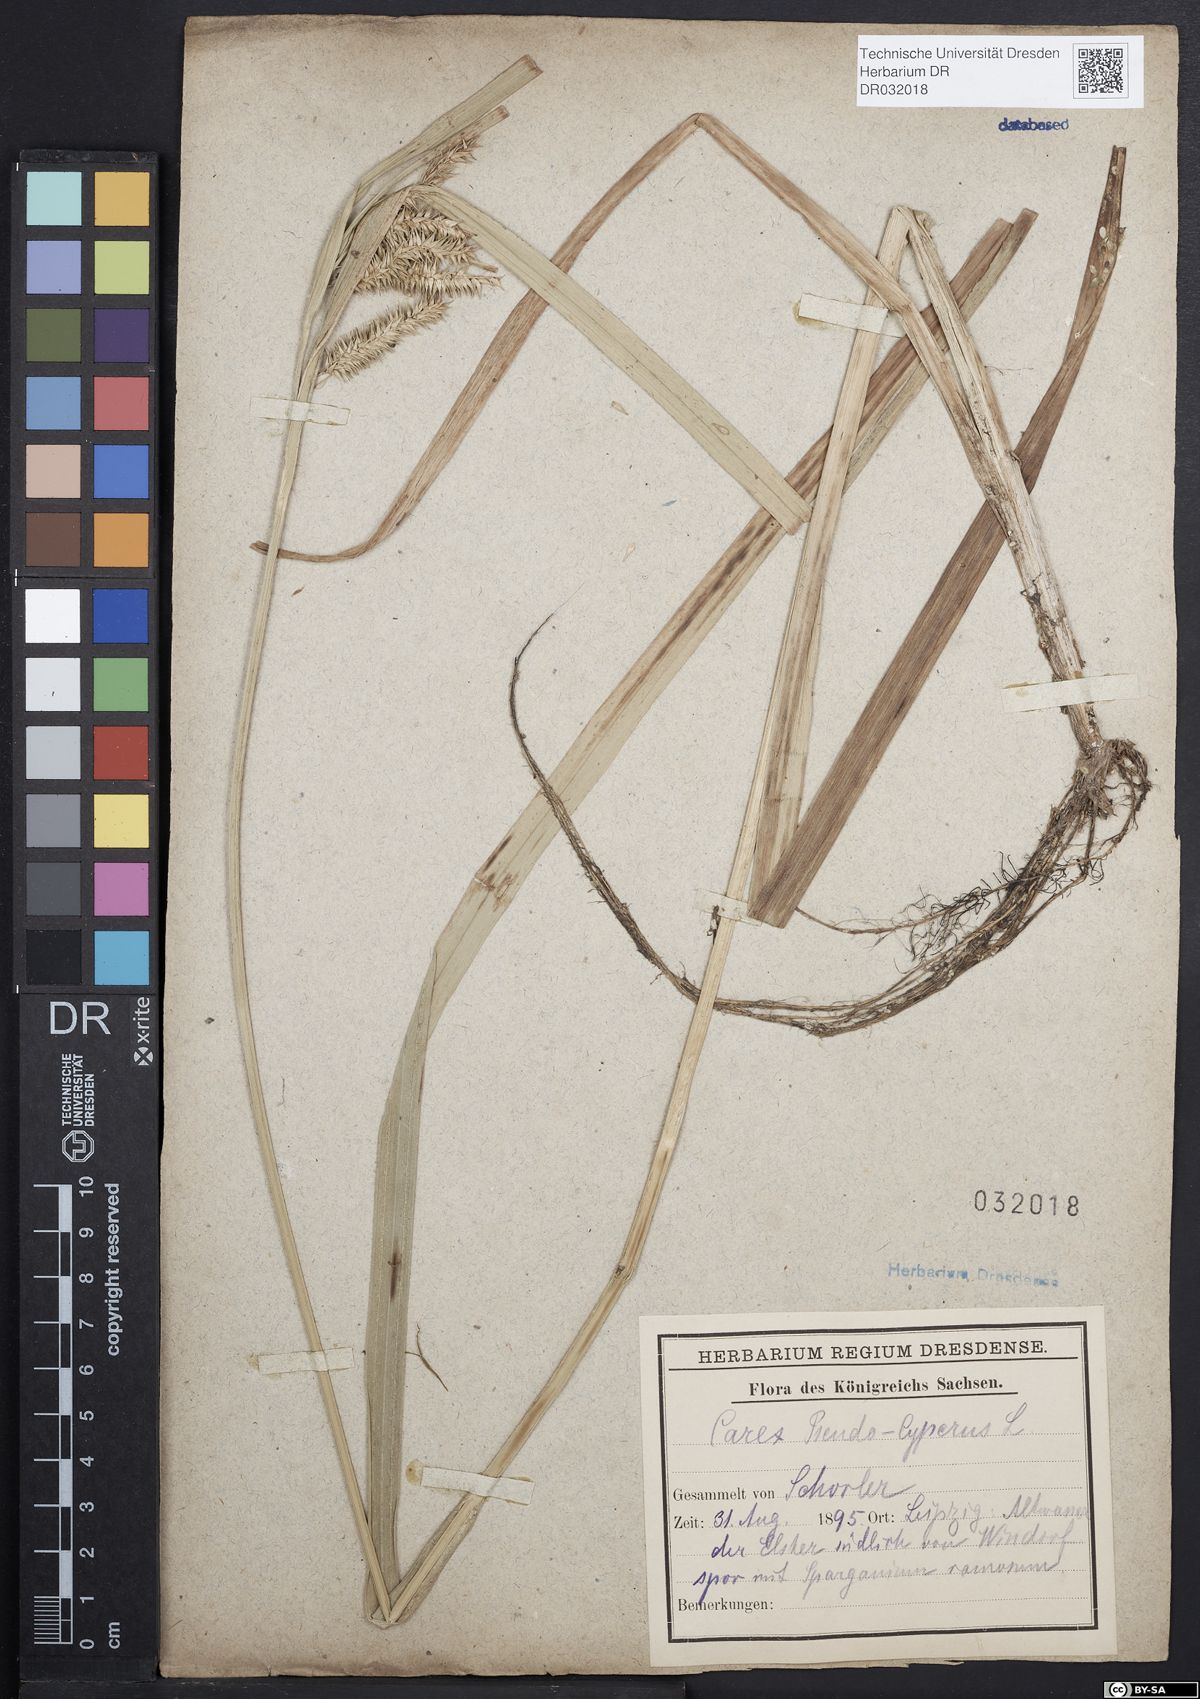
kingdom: Plantae
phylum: Tracheophyta
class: Liliopsida
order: Poales
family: Cyperaceae
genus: Carex
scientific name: Carex pseudocyperus
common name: Cyperus sedge
